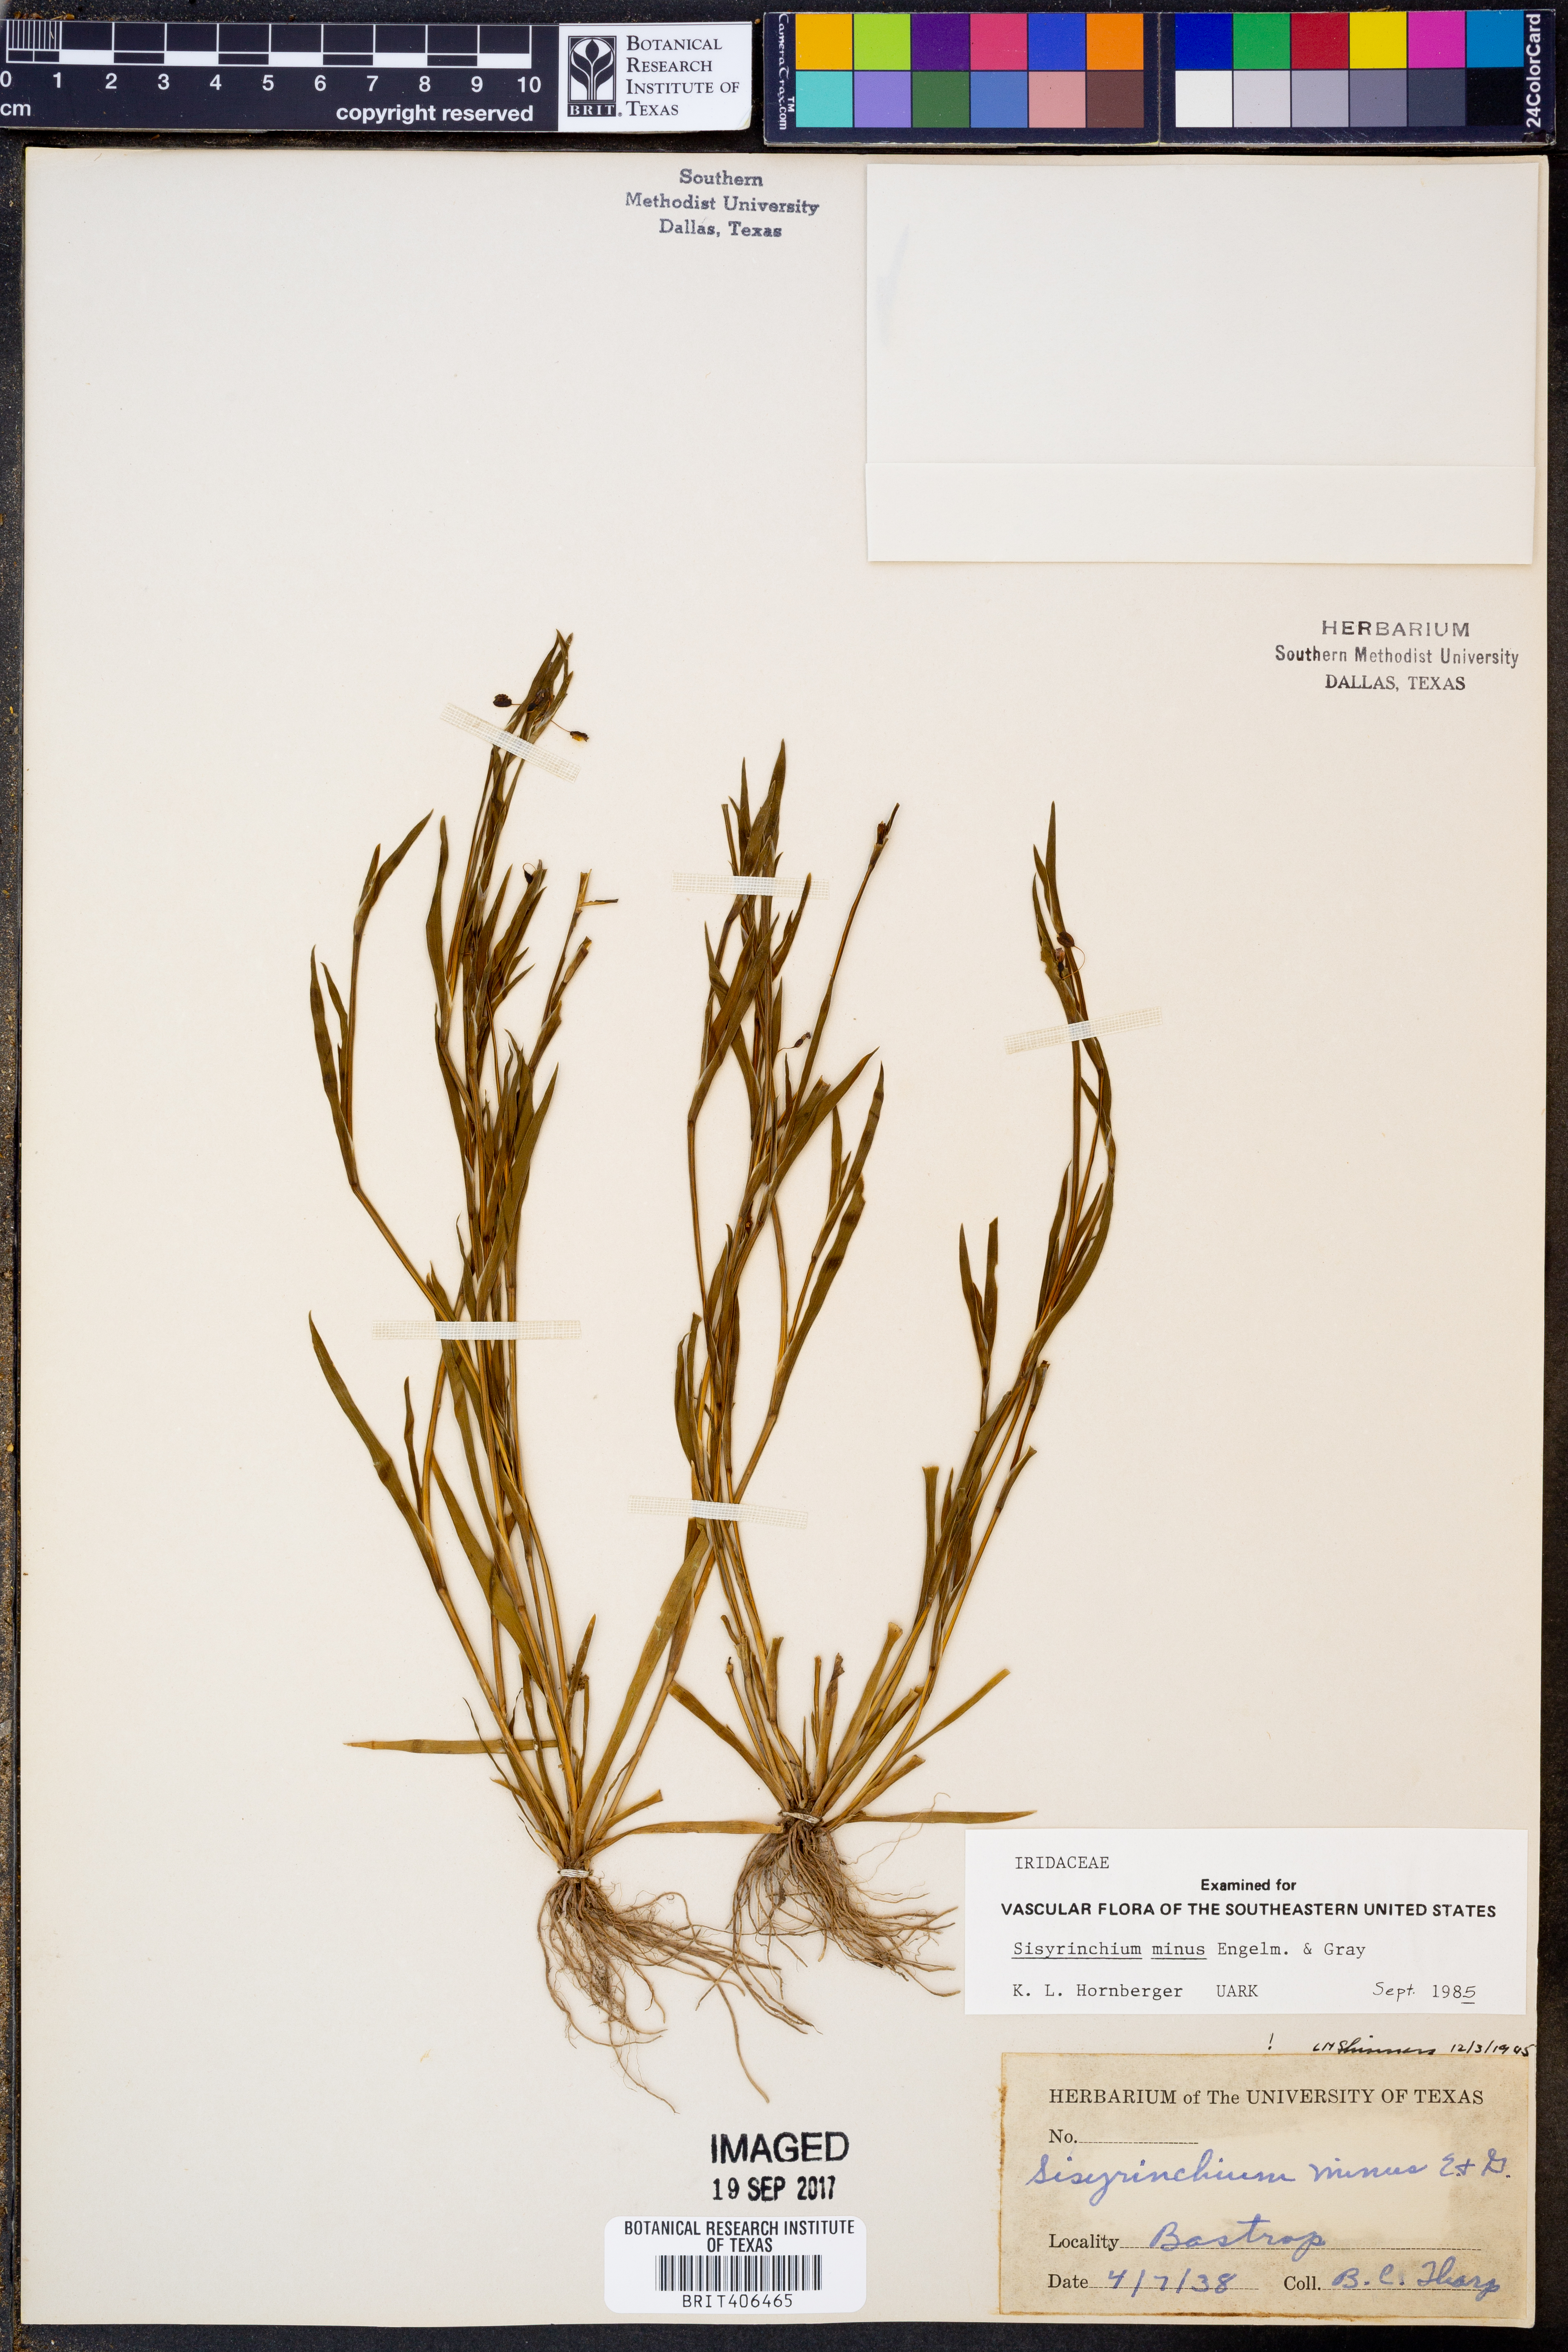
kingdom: Plantae
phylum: Tracheophyta
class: Liliopsida
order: Asparagales
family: Iridaceae
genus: Sisyrinchium
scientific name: Sisyrinchium minus
